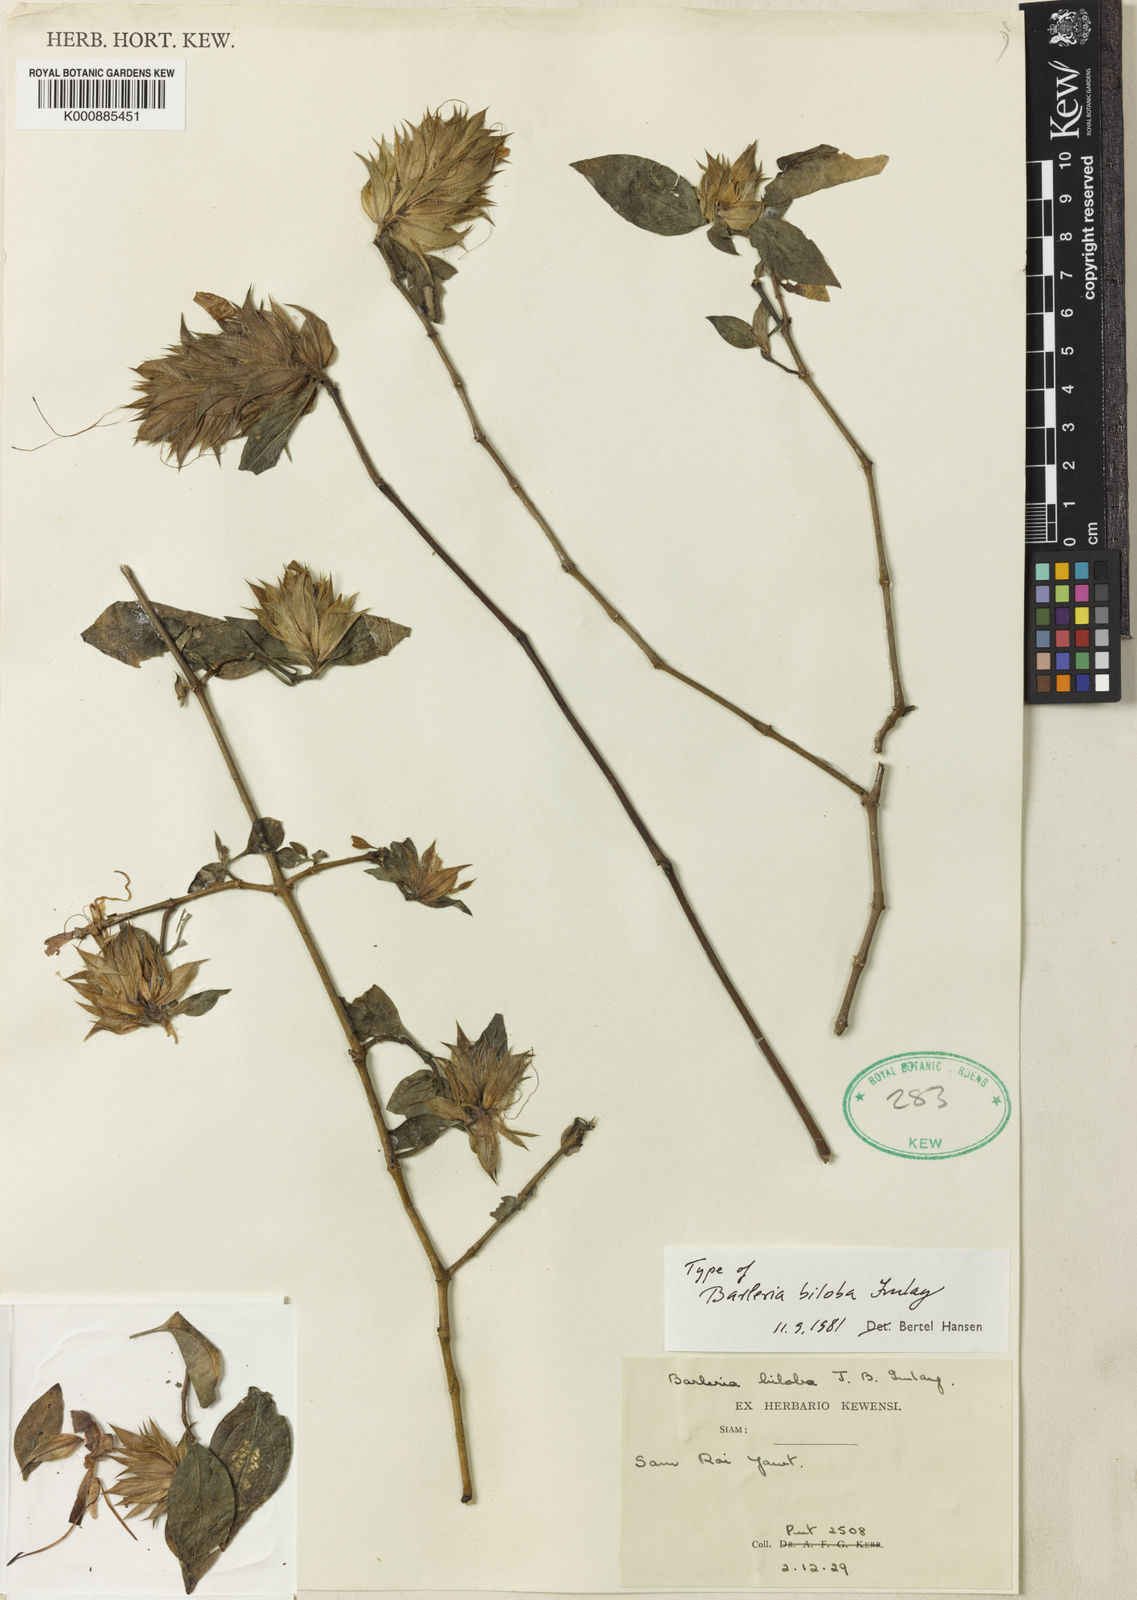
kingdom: Plantae
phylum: Tracheophyta
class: Magnoliopsida
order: Lamiales
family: Acanthaceae
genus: Barleria
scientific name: Barleria biloba
